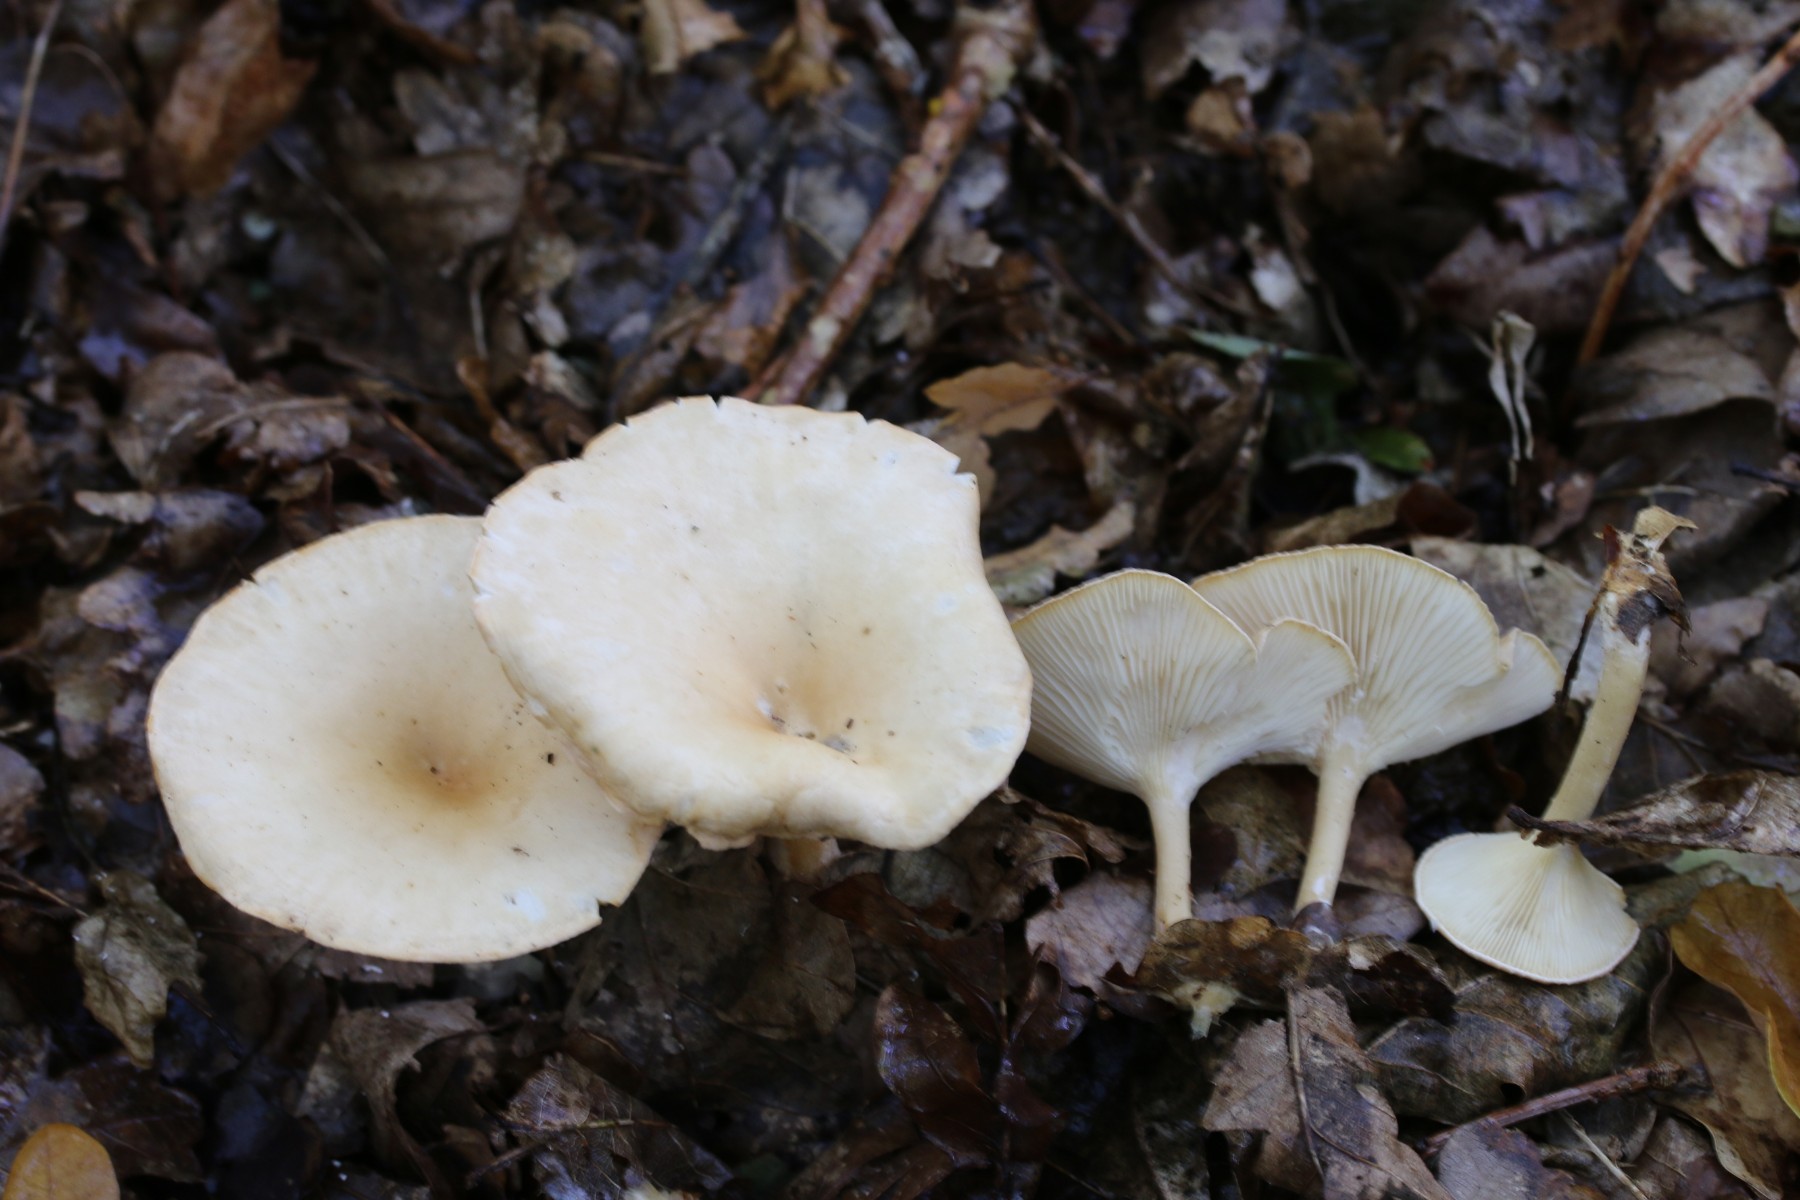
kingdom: Fungi
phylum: Basidiomycota
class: Agaricomycetes
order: Agaricales
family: Tricholomataceae
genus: Infundibulicybe
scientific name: Infundibulicybe gibba
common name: almindelig tragthat
